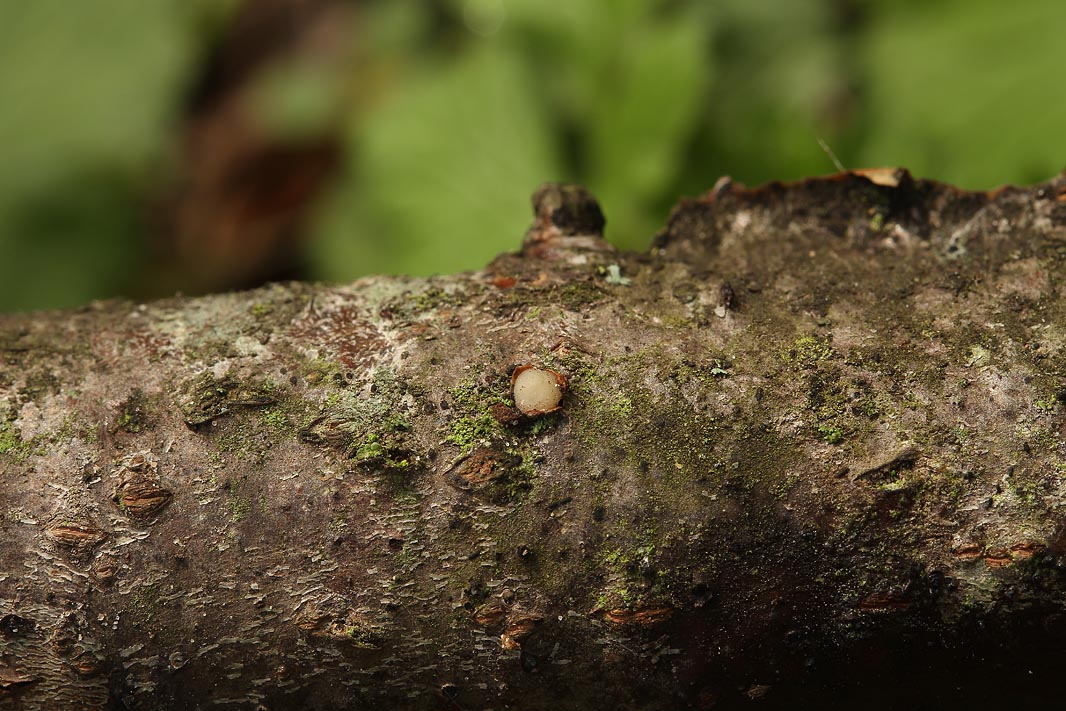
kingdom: Fungi
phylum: Basidiomycota
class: Pucciniomycetes
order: Platygloeales
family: Platygloeaceae
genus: Platygloea
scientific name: Platygloea disciformis
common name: linde-slimklat
